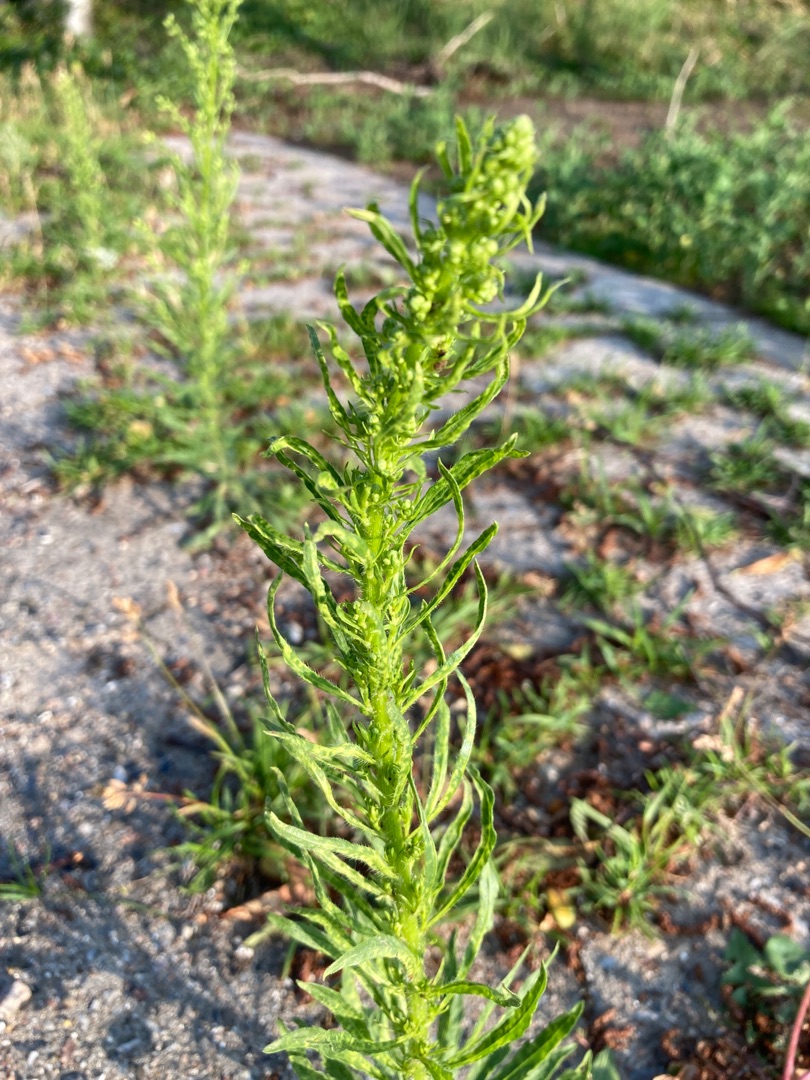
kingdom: Plantae
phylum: Tracheophyta
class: Magnoliopsida
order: Asterales
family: Asteraceae
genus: Erigeron
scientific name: Erigeron canadensis
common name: Kanadisk bakkestjerne
